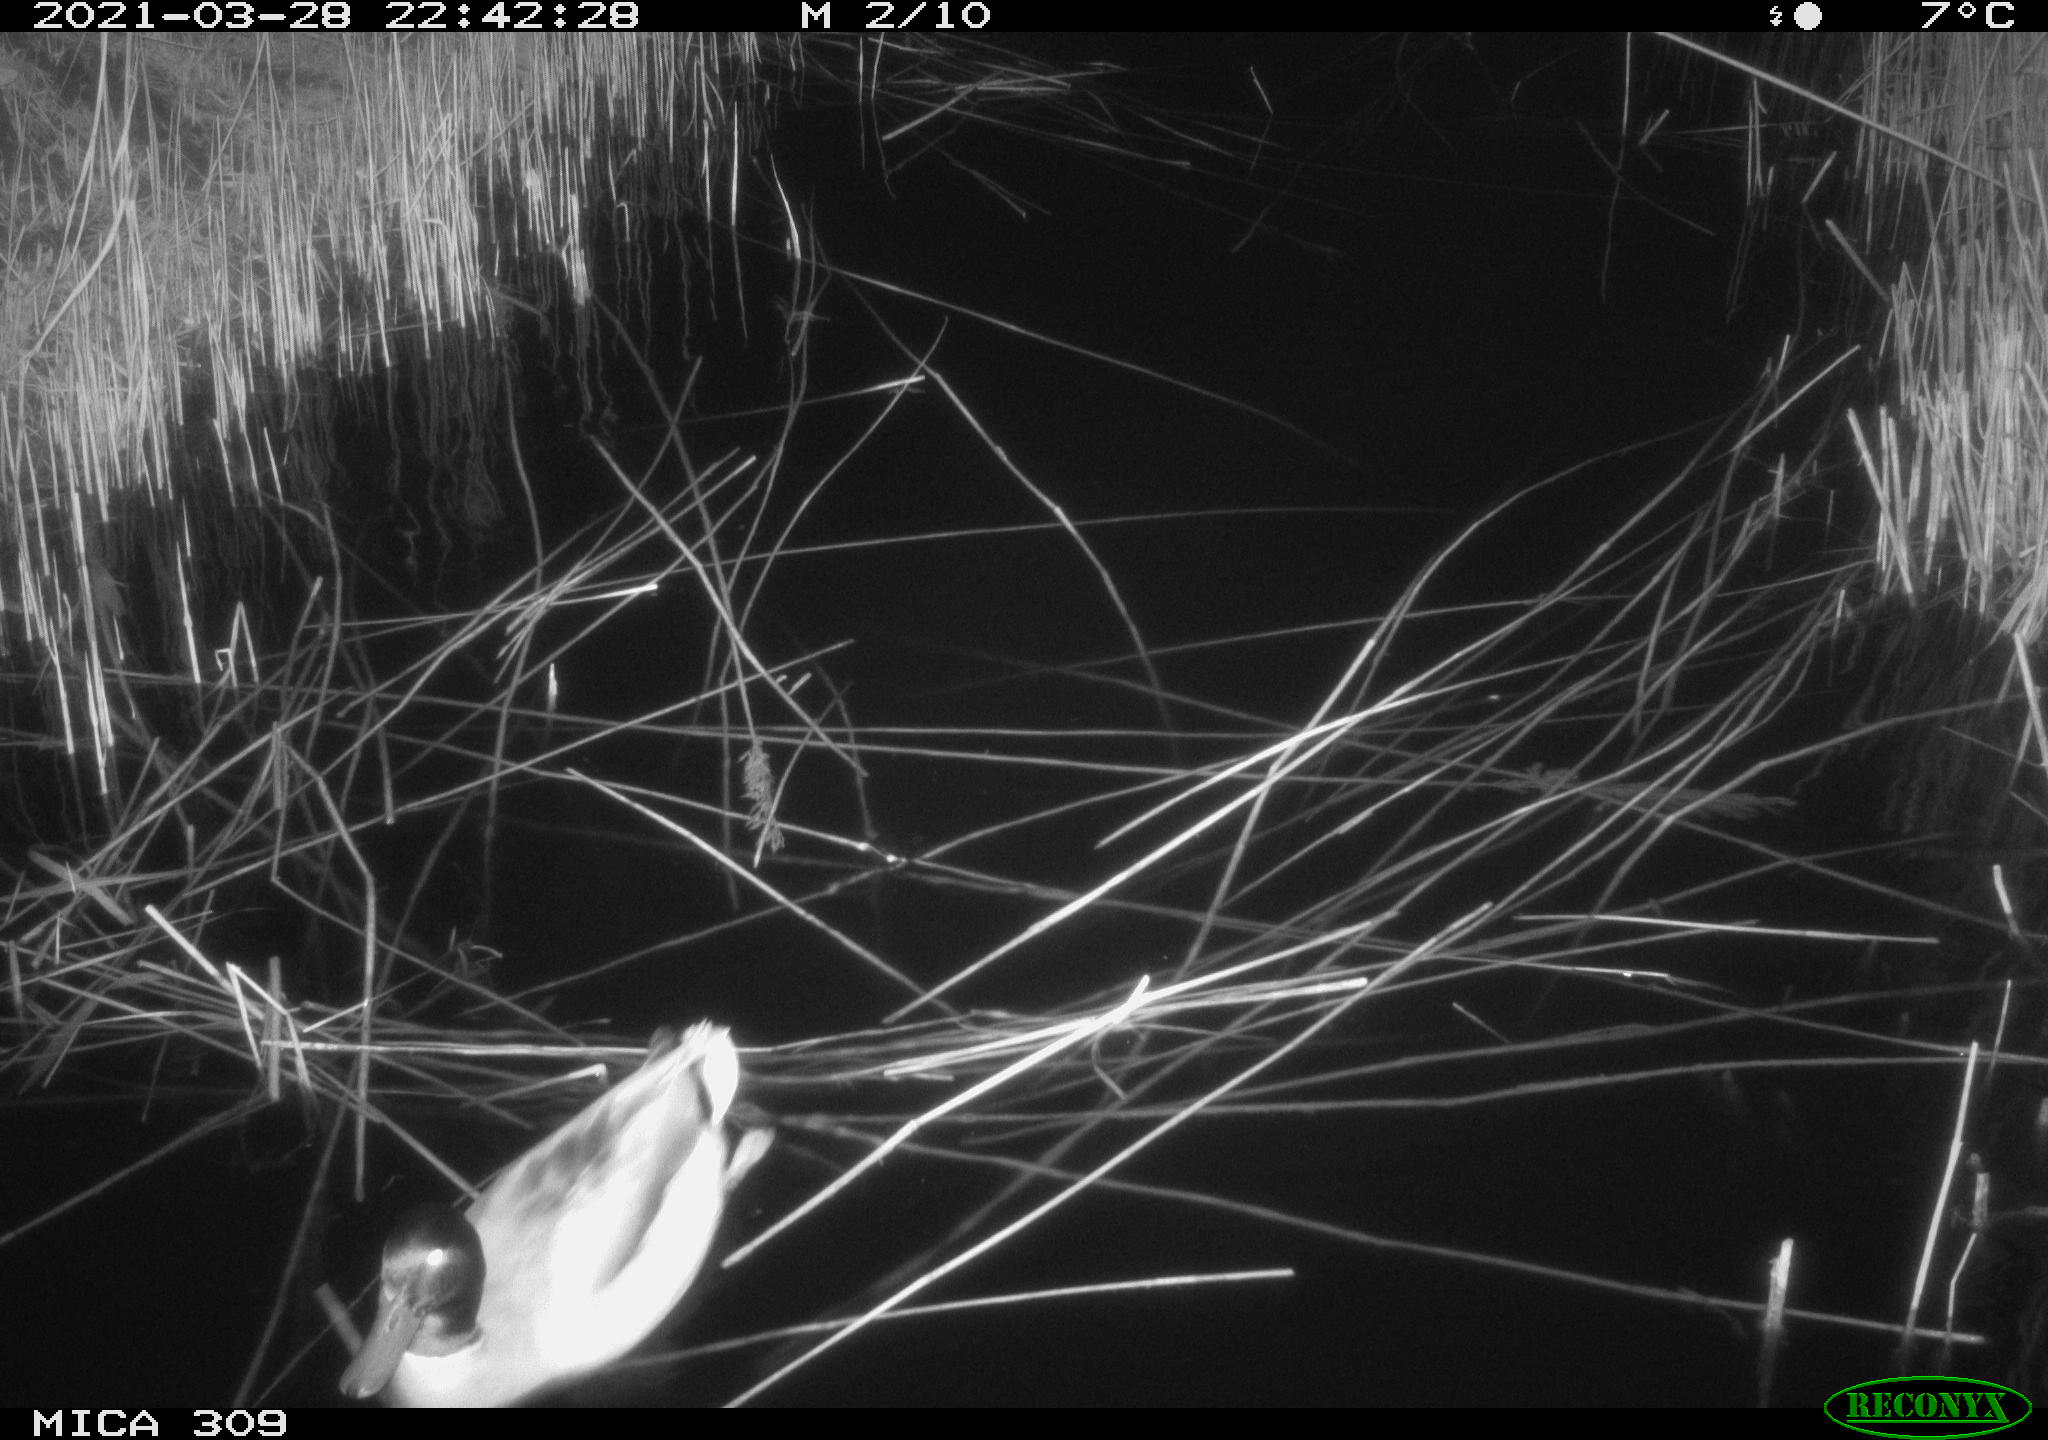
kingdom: Animalia
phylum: Chordata
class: Aves
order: Anseriformes
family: Anatidae
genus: Anas
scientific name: Anas platyrhynchos
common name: Mallard
